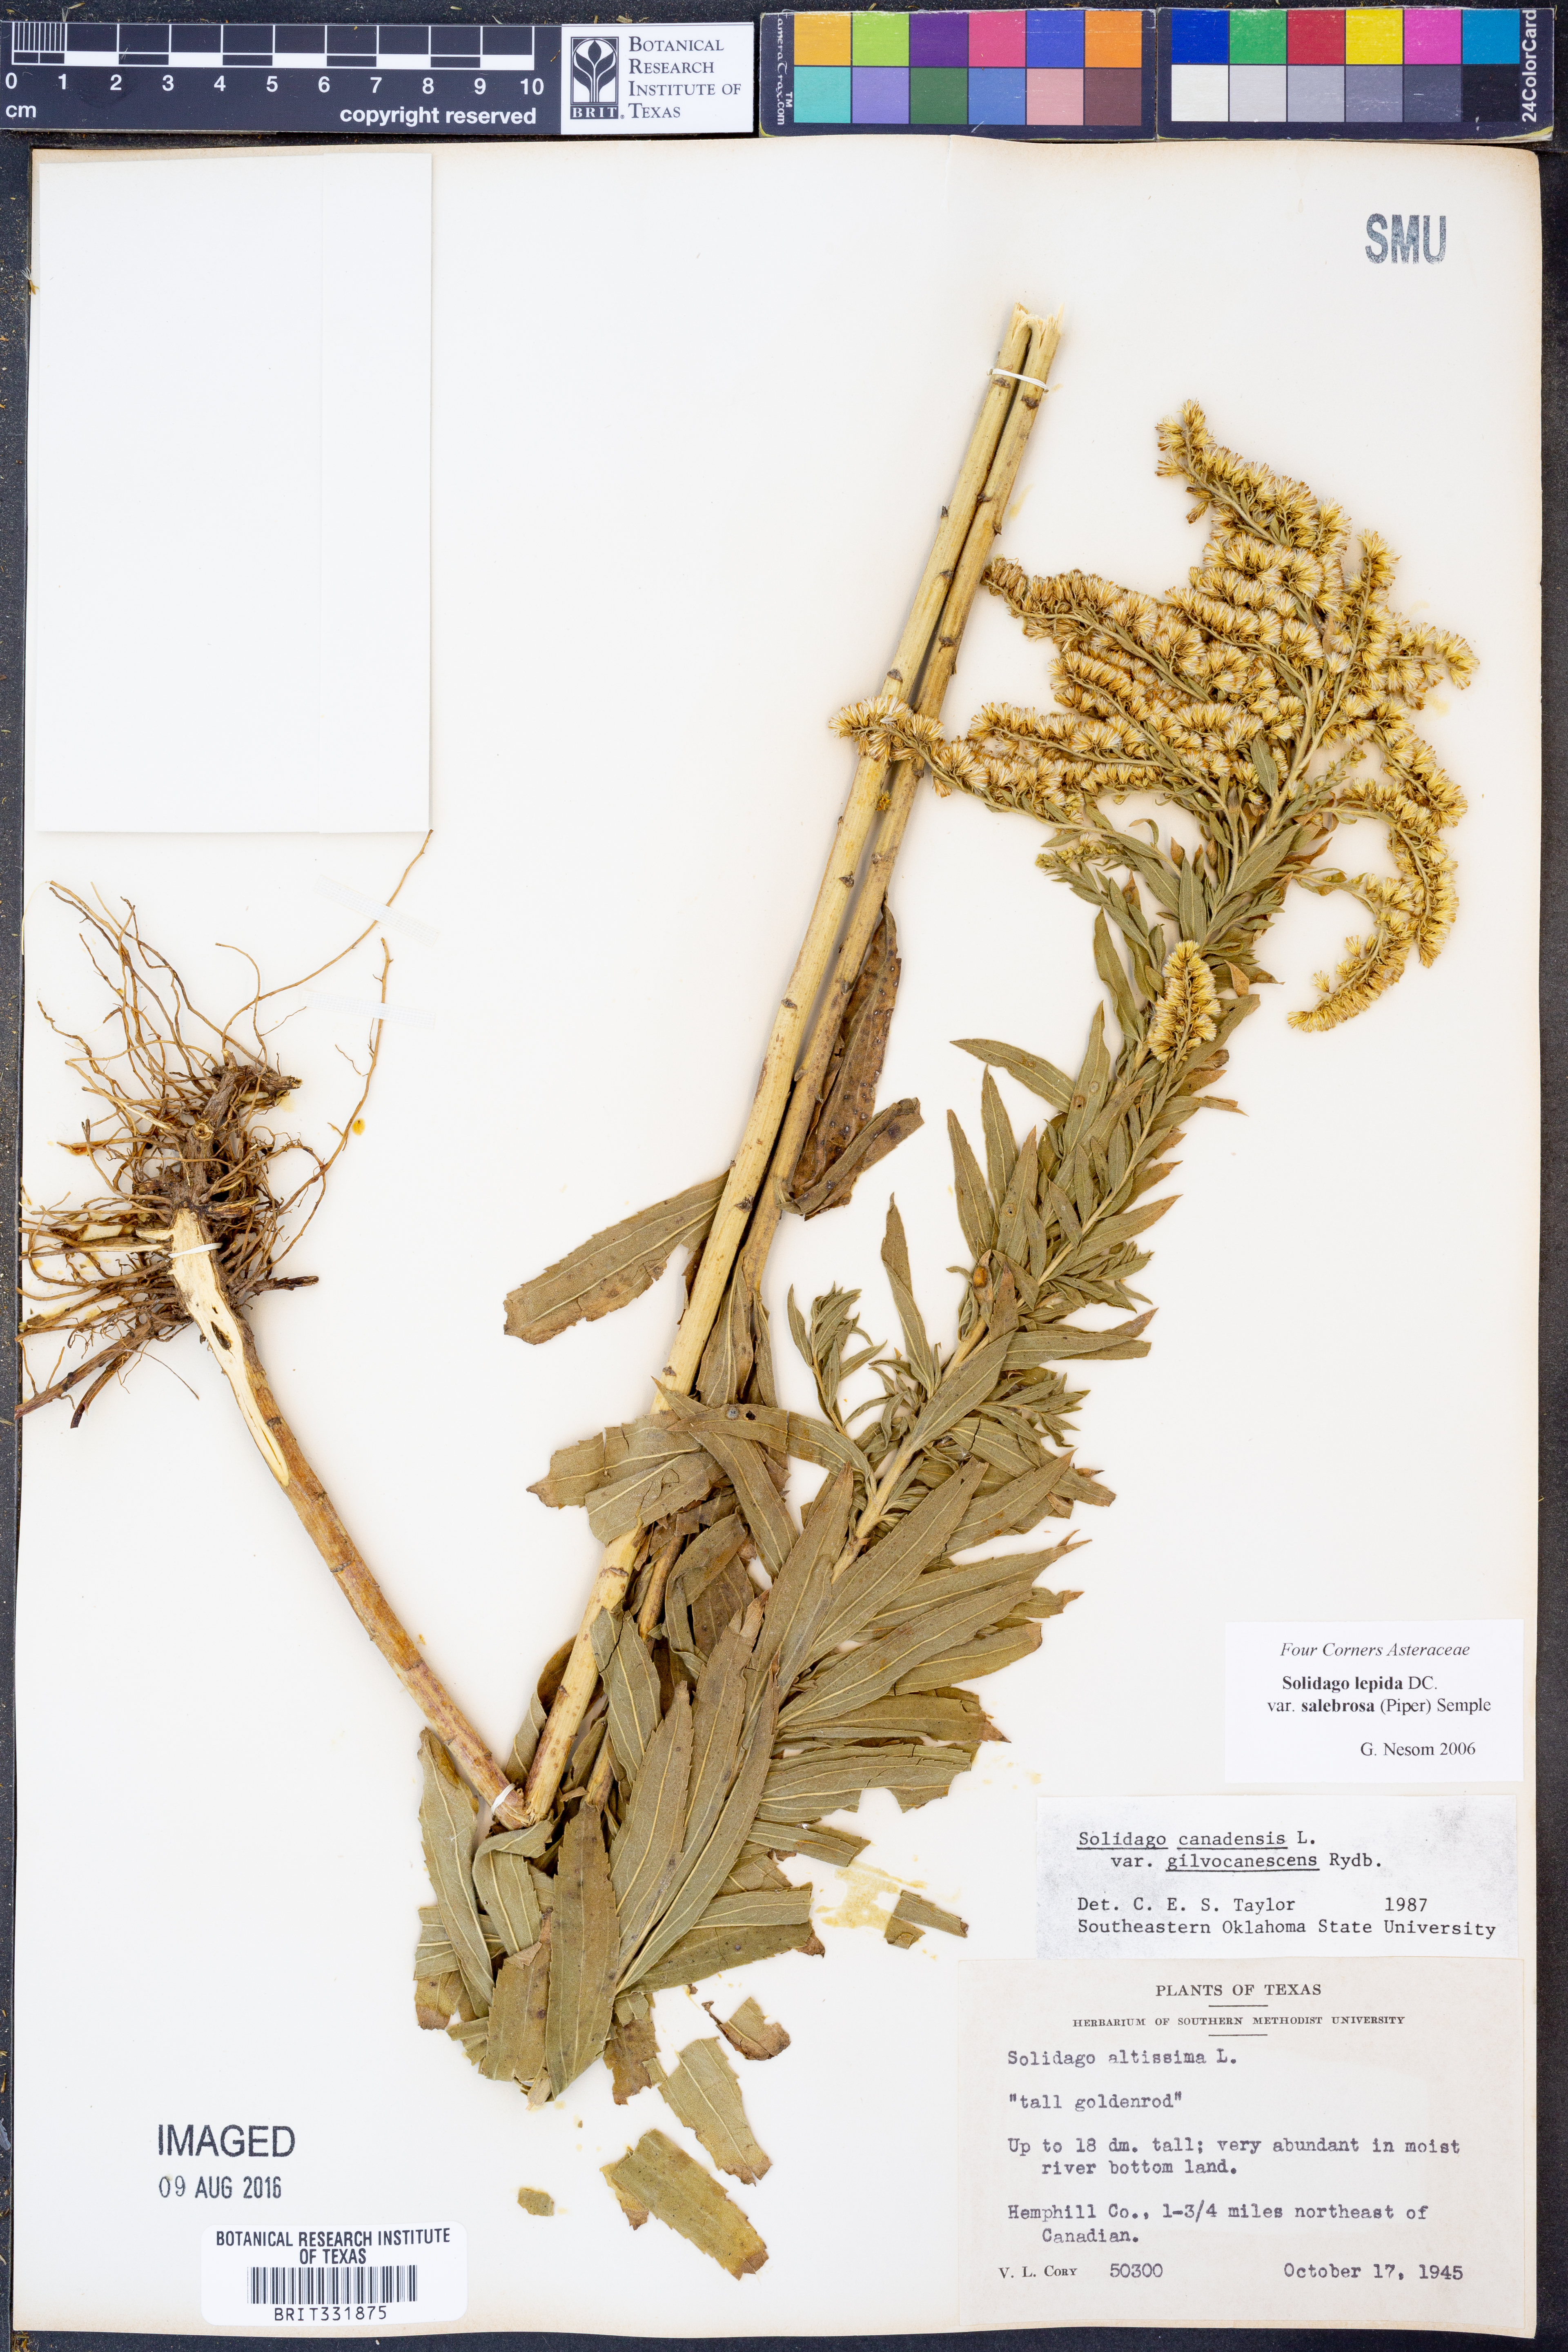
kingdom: Plantae
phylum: Tracheophyta
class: Magnoliopsida
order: Asterales
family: Asteraceae
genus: Solidago
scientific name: Solidago lepida
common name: Western canada goldenrod
